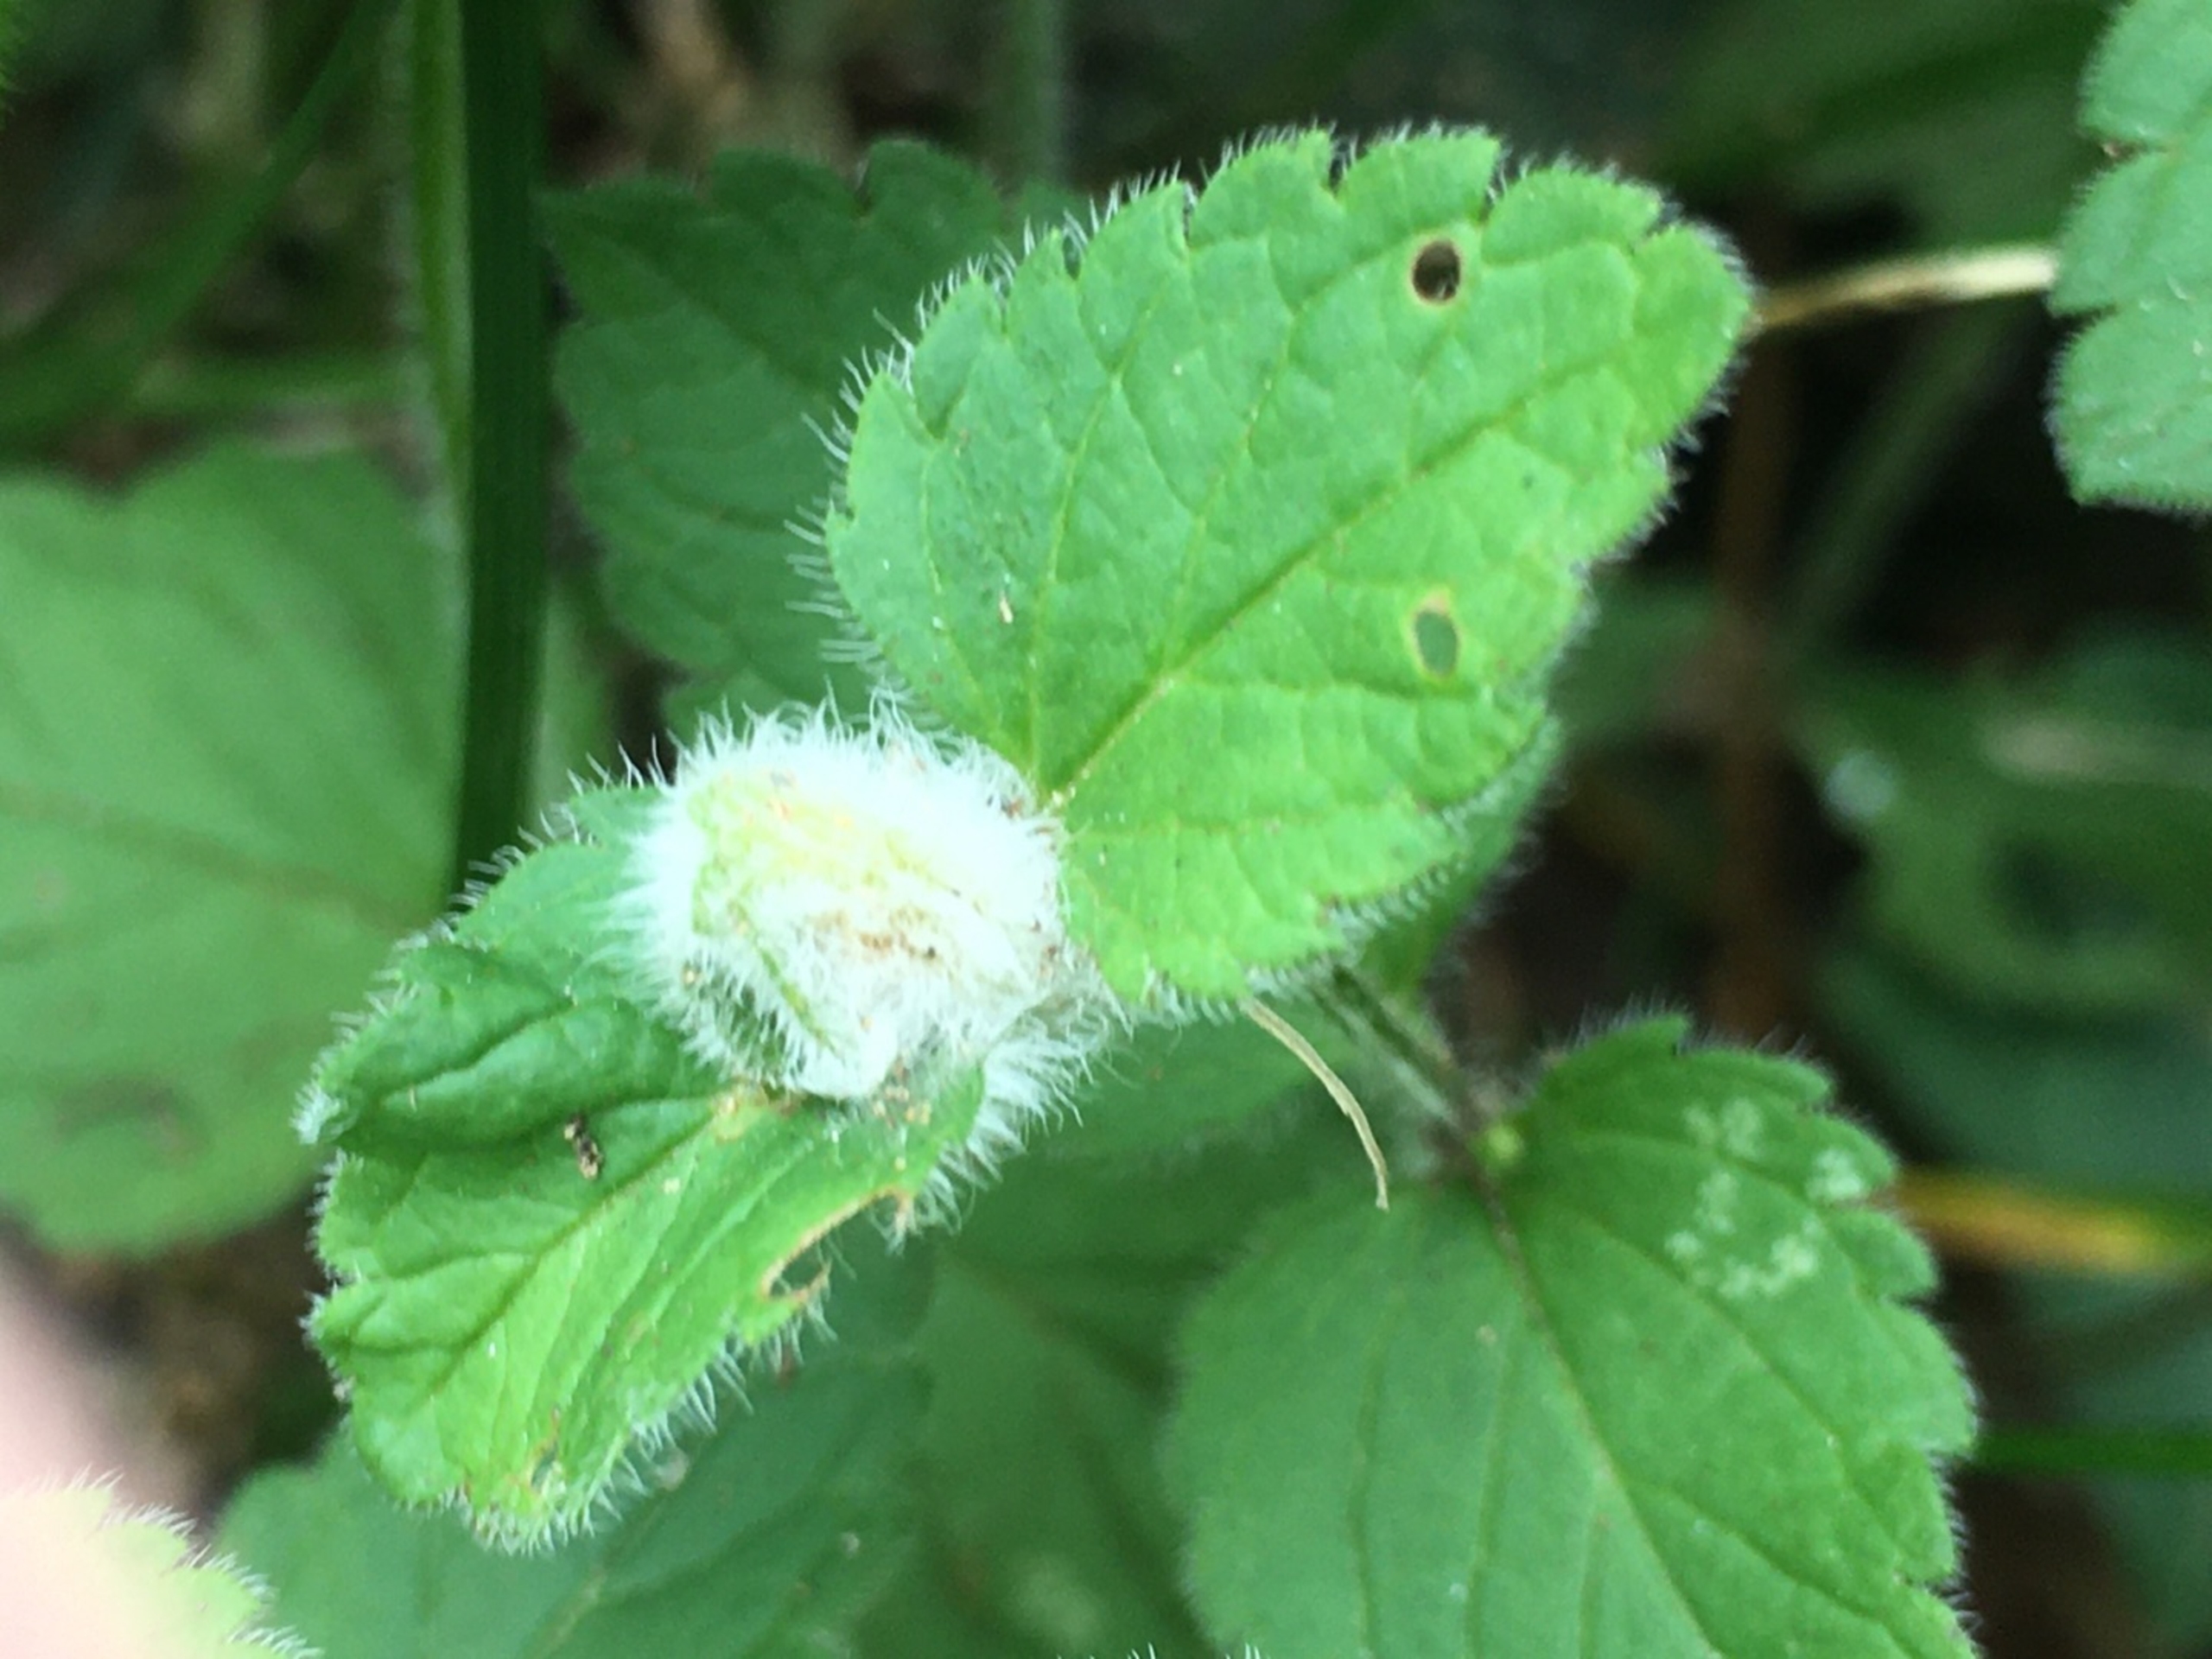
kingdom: Animalia
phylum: Arthropoda
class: Insecta
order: Diptera
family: Cecidomyiidae
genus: Jaapiella
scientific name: Jaapiella veronicae
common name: Ærenprisgalmyg
